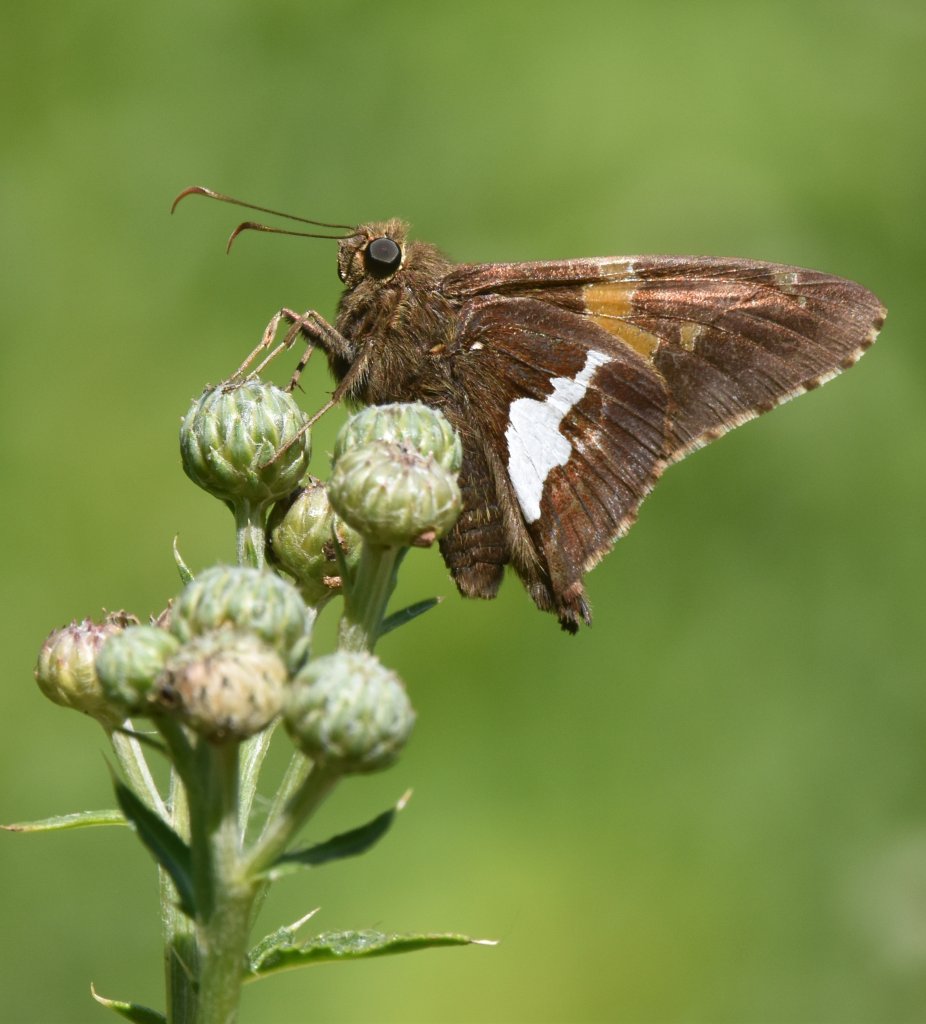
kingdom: Animalia
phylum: Arthropoda
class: Insecta
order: Lepidoptera
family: Hesperiidae
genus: Epargyreus
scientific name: Epargyreus clarus
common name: Silver-spotted Skipper
